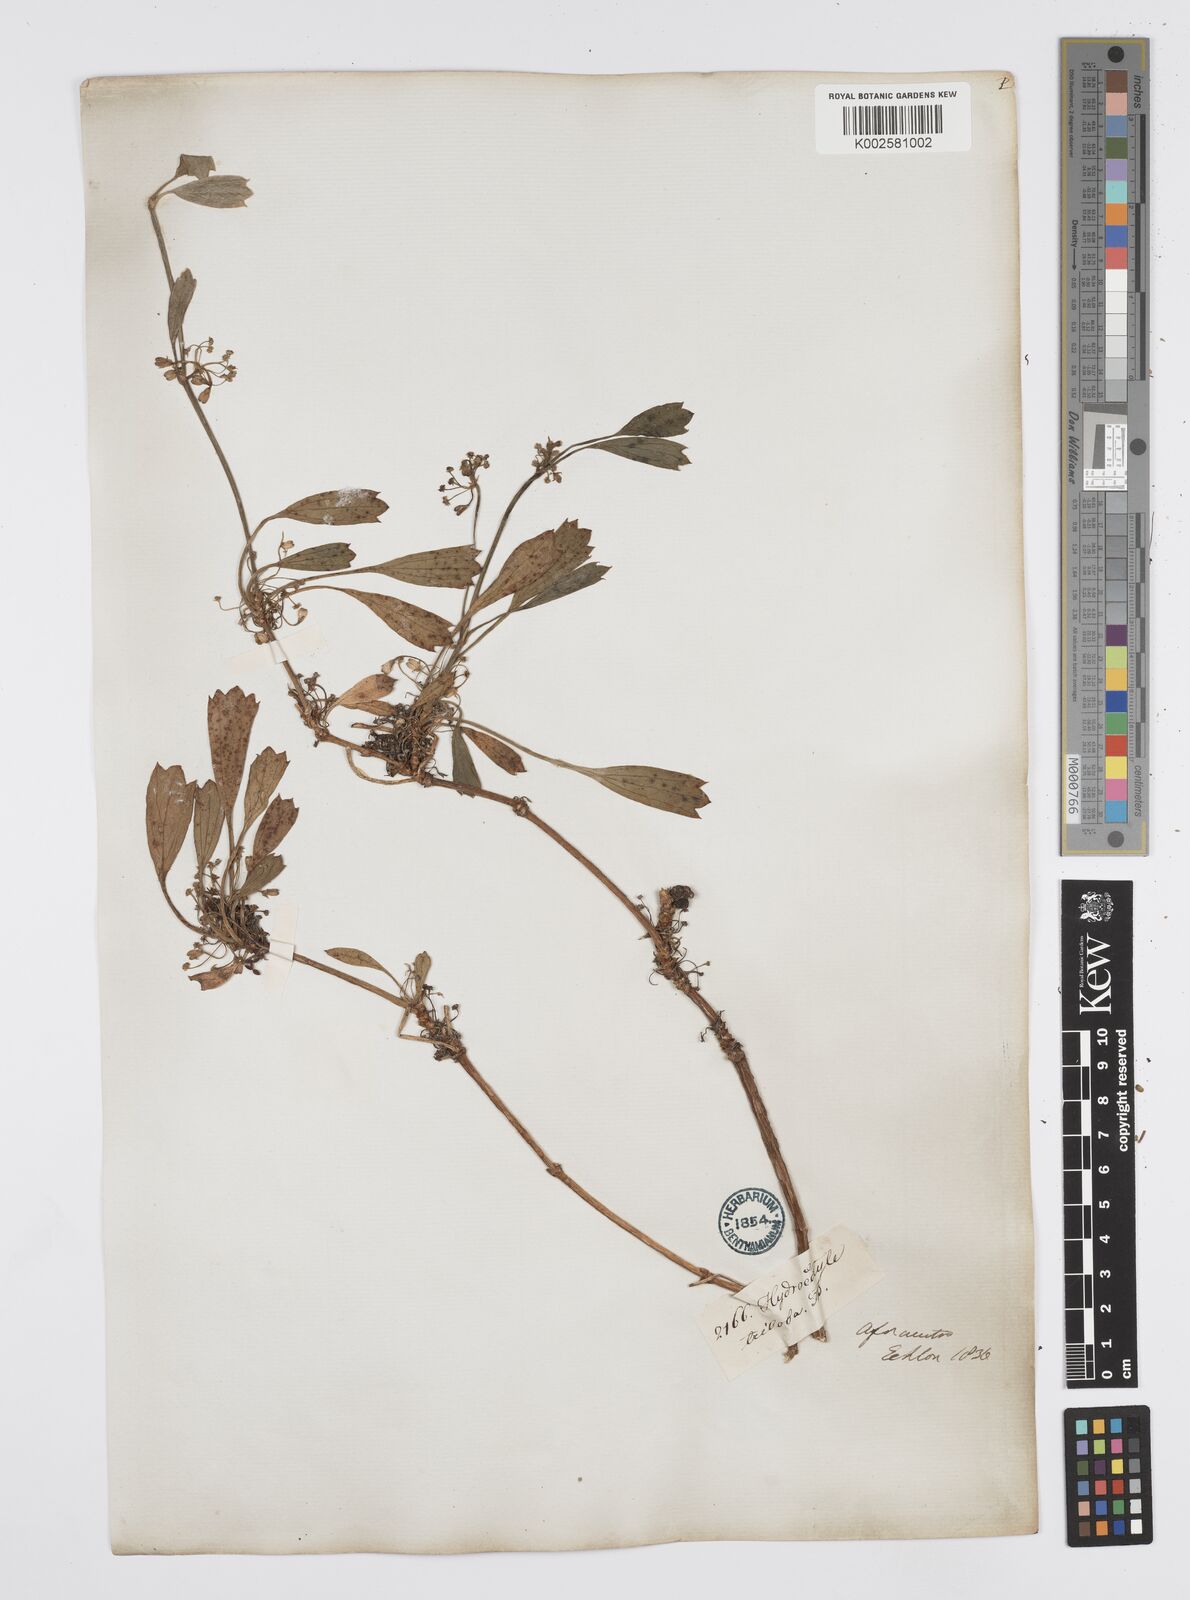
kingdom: Plantae
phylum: Tracheophyta
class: Magnoliopsida
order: Apiales
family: Apiaceae
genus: Centella
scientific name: Centella triloba
